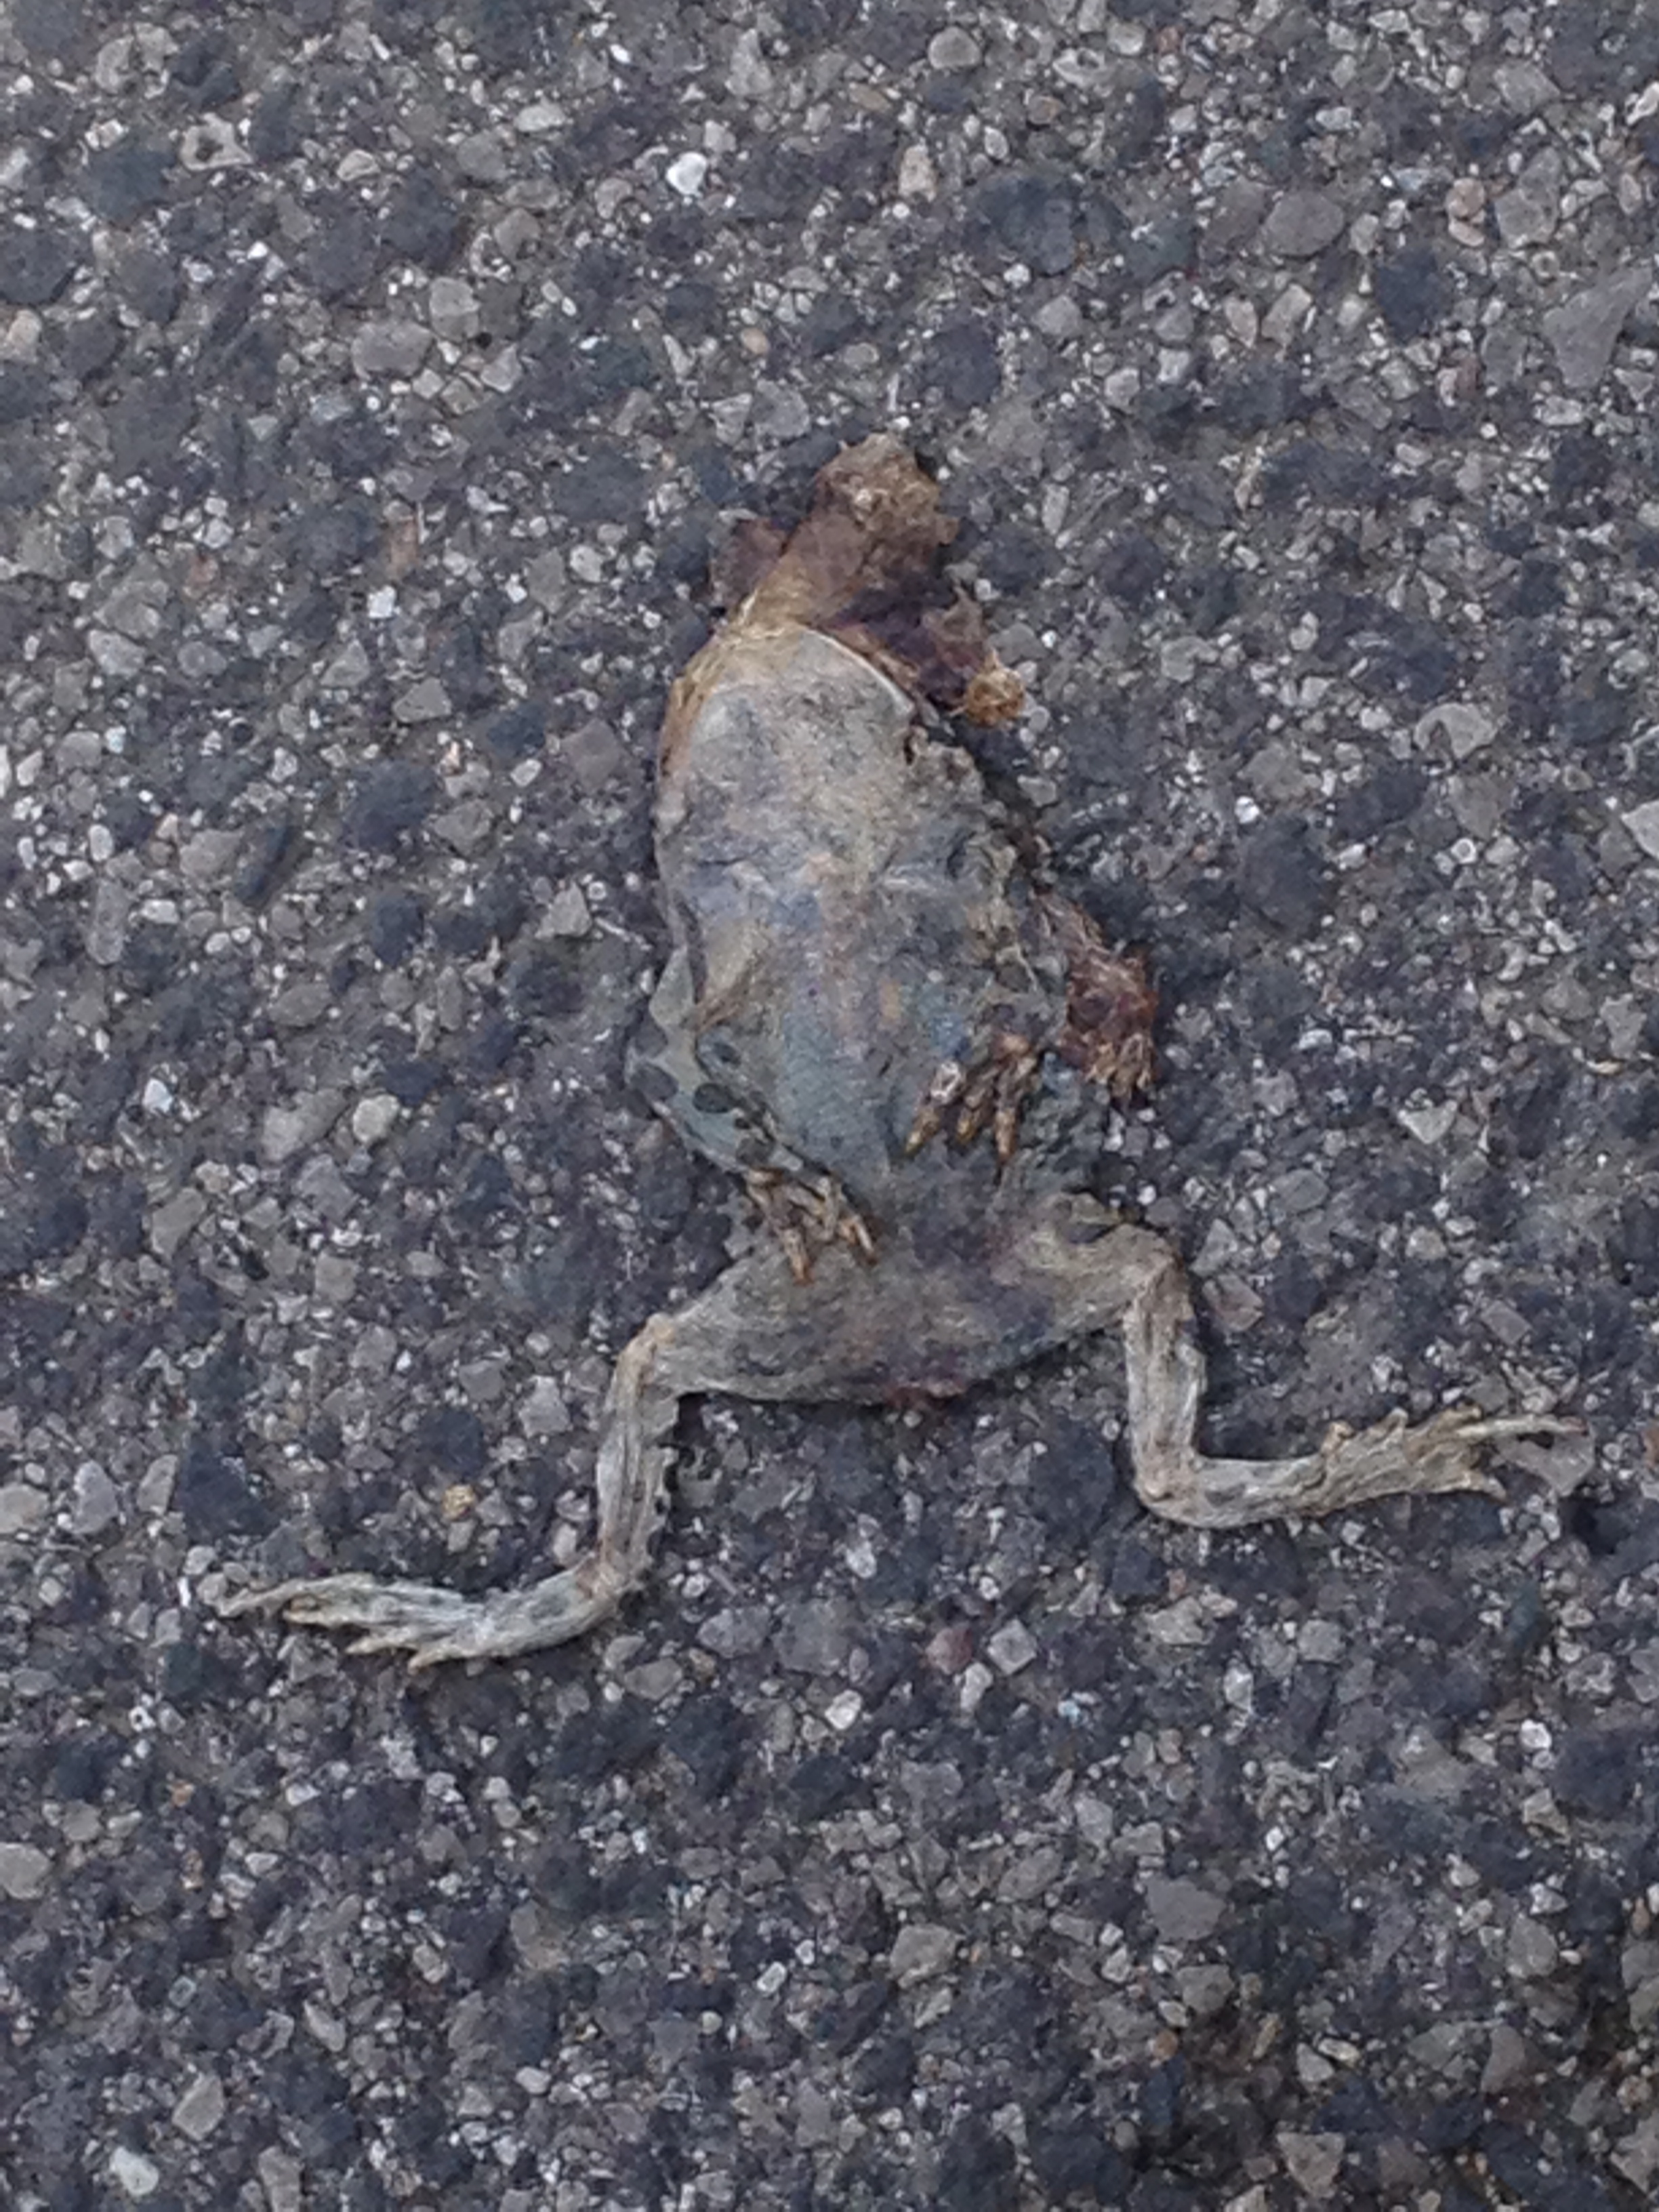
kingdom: Animalia
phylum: Chordata
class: Amphibia
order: Anura
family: Bufonidae
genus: Bufotes
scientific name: Bufotes viridis
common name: European green toad
